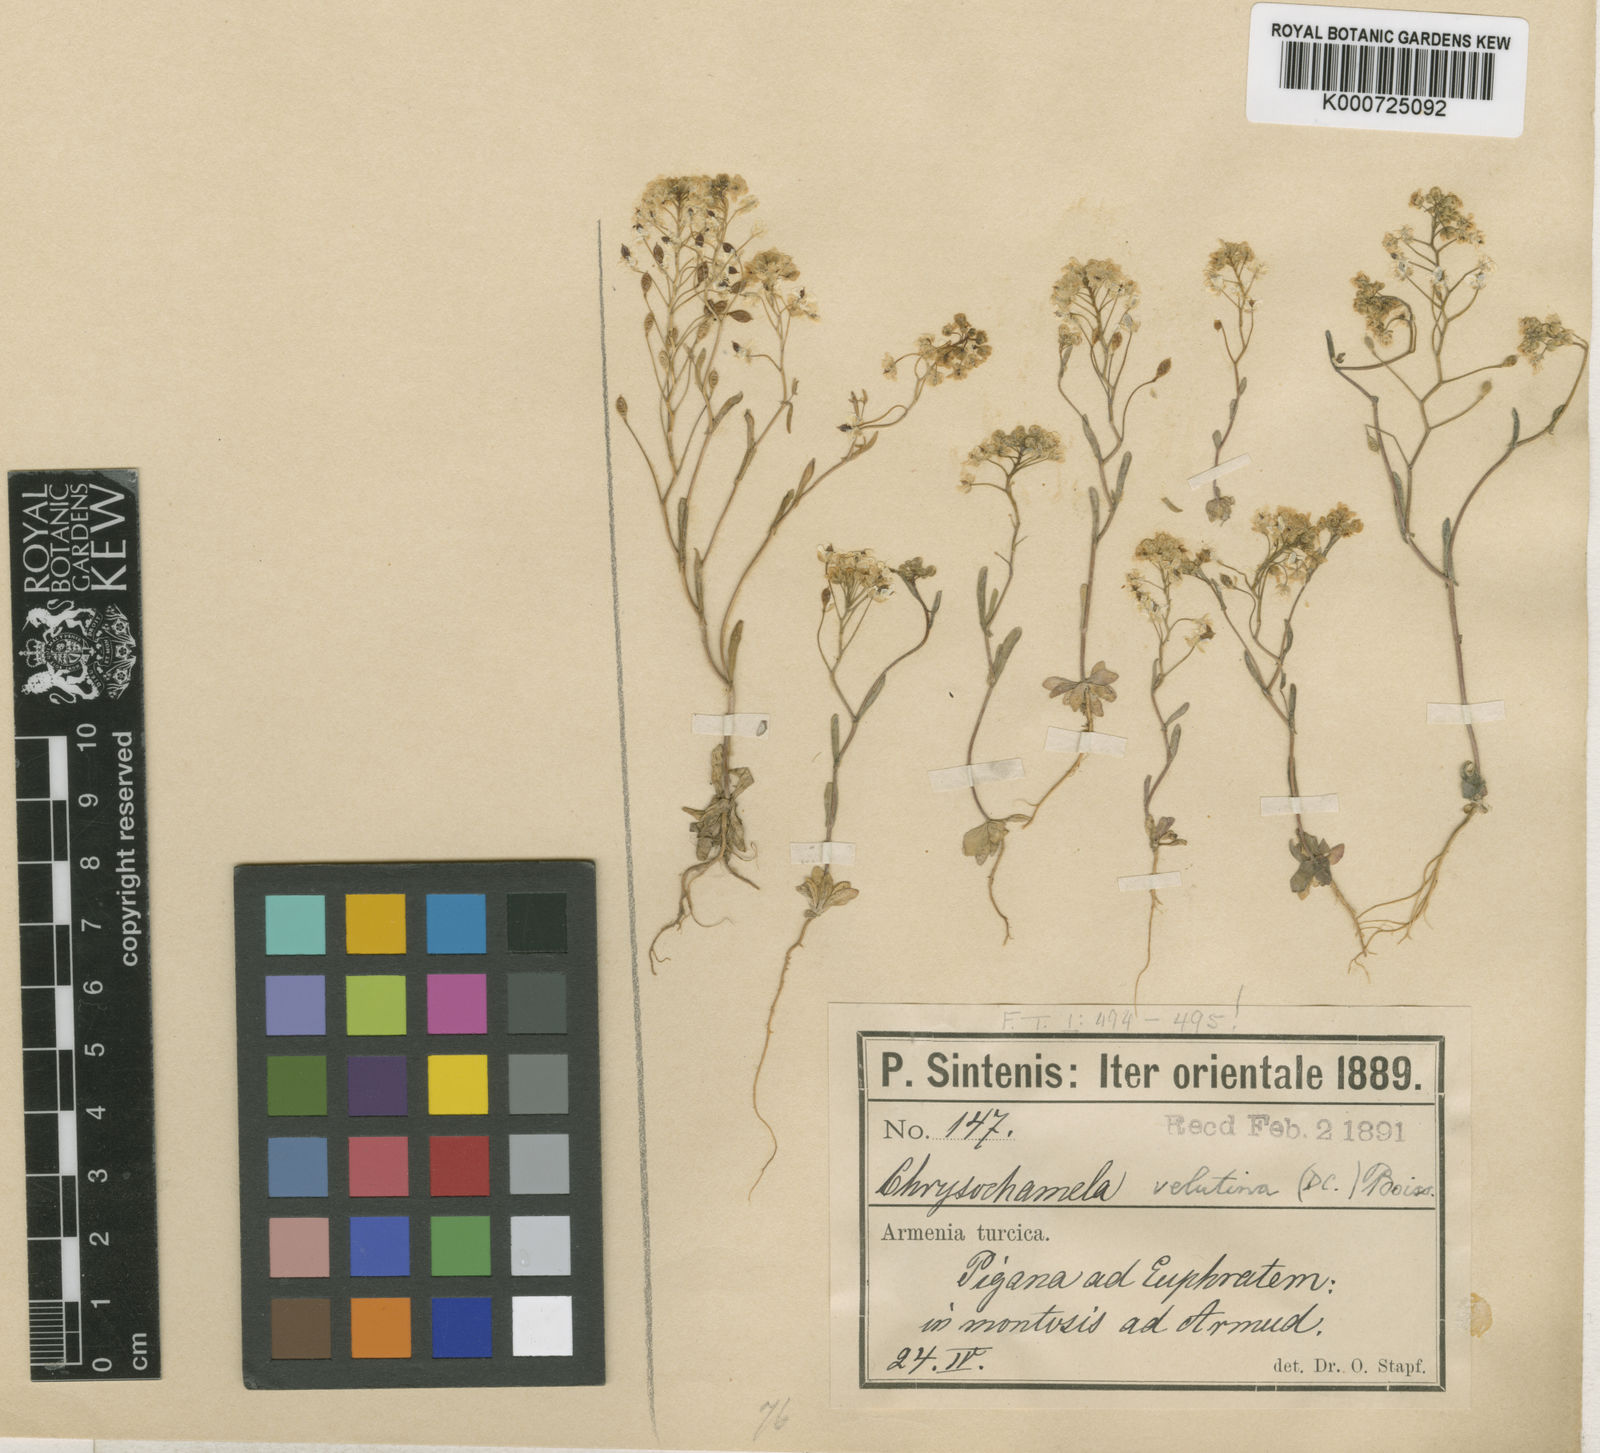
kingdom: Plantae
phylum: Tracheophyta
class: Magnoliopsida
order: Brassicales
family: Brassicaceae
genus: Chrysochamela
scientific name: Chrysochamela velutina
